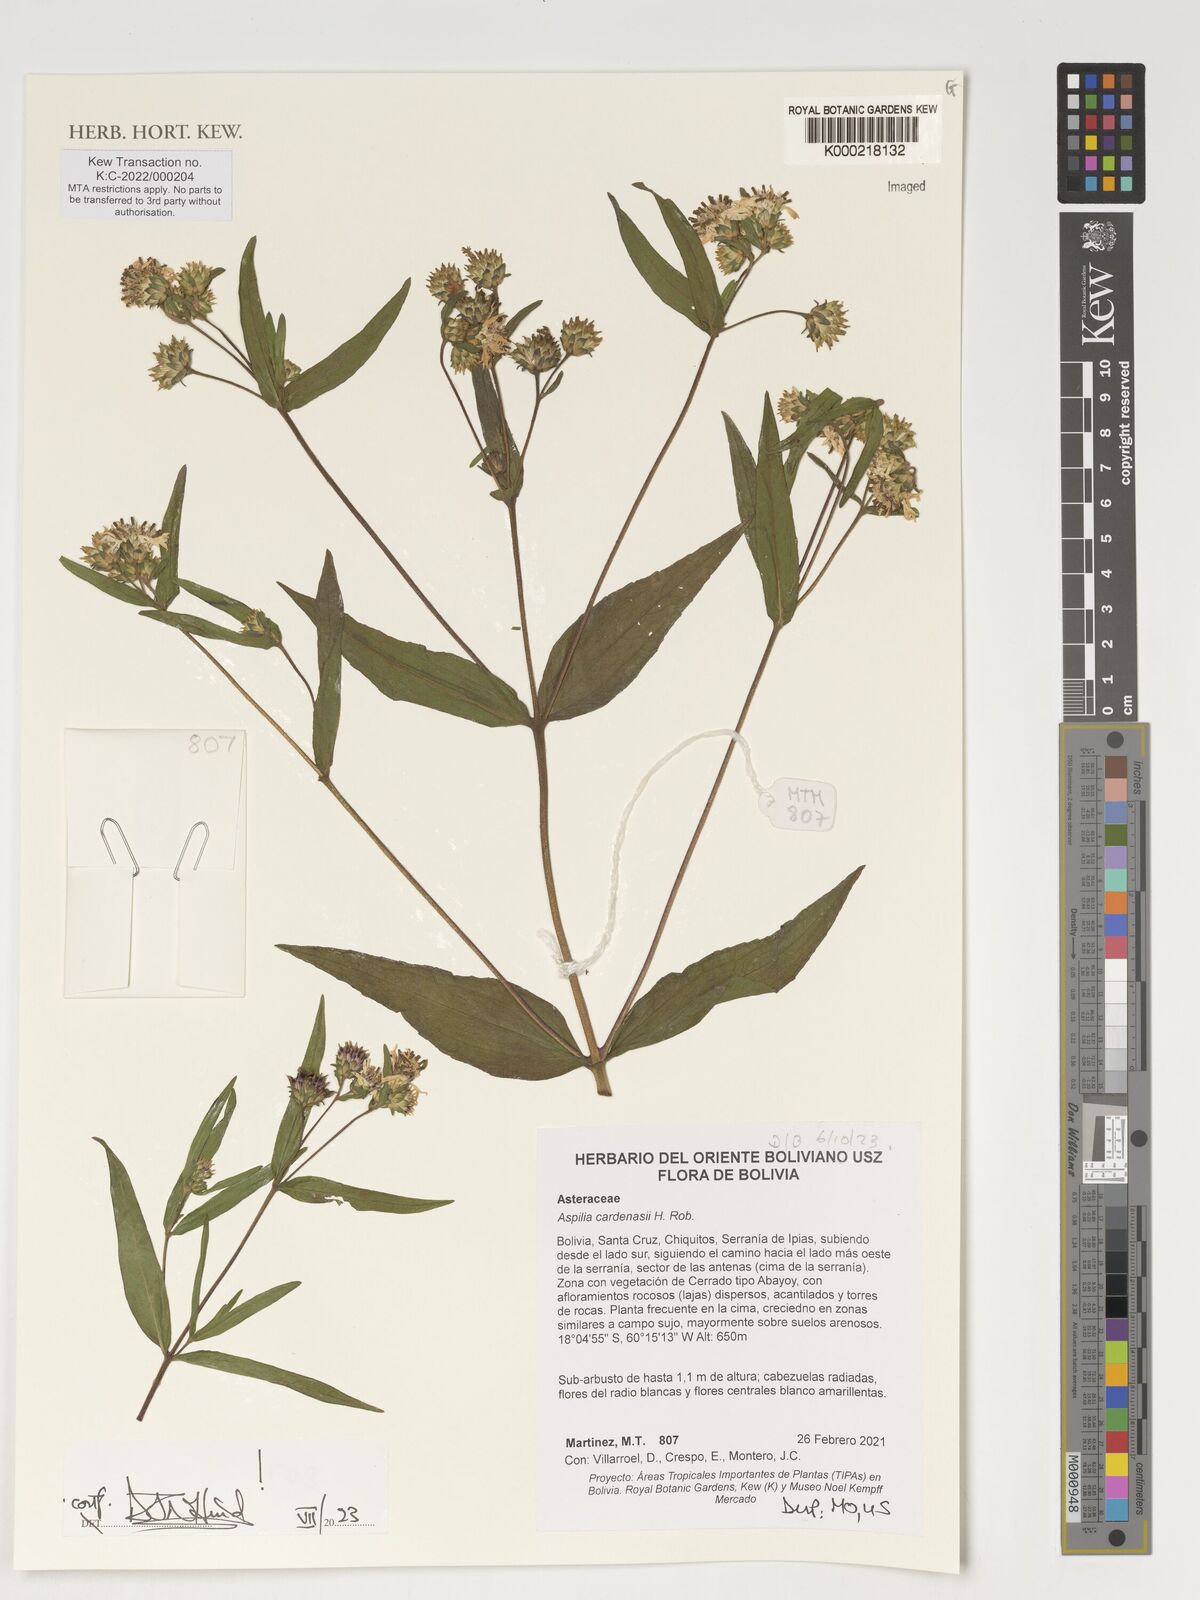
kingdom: Plantae
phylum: Tracheophyta
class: Magnoliopsida
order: Asterales
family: Asteraceae
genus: Wedelia
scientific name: Wedelia cardenasii
